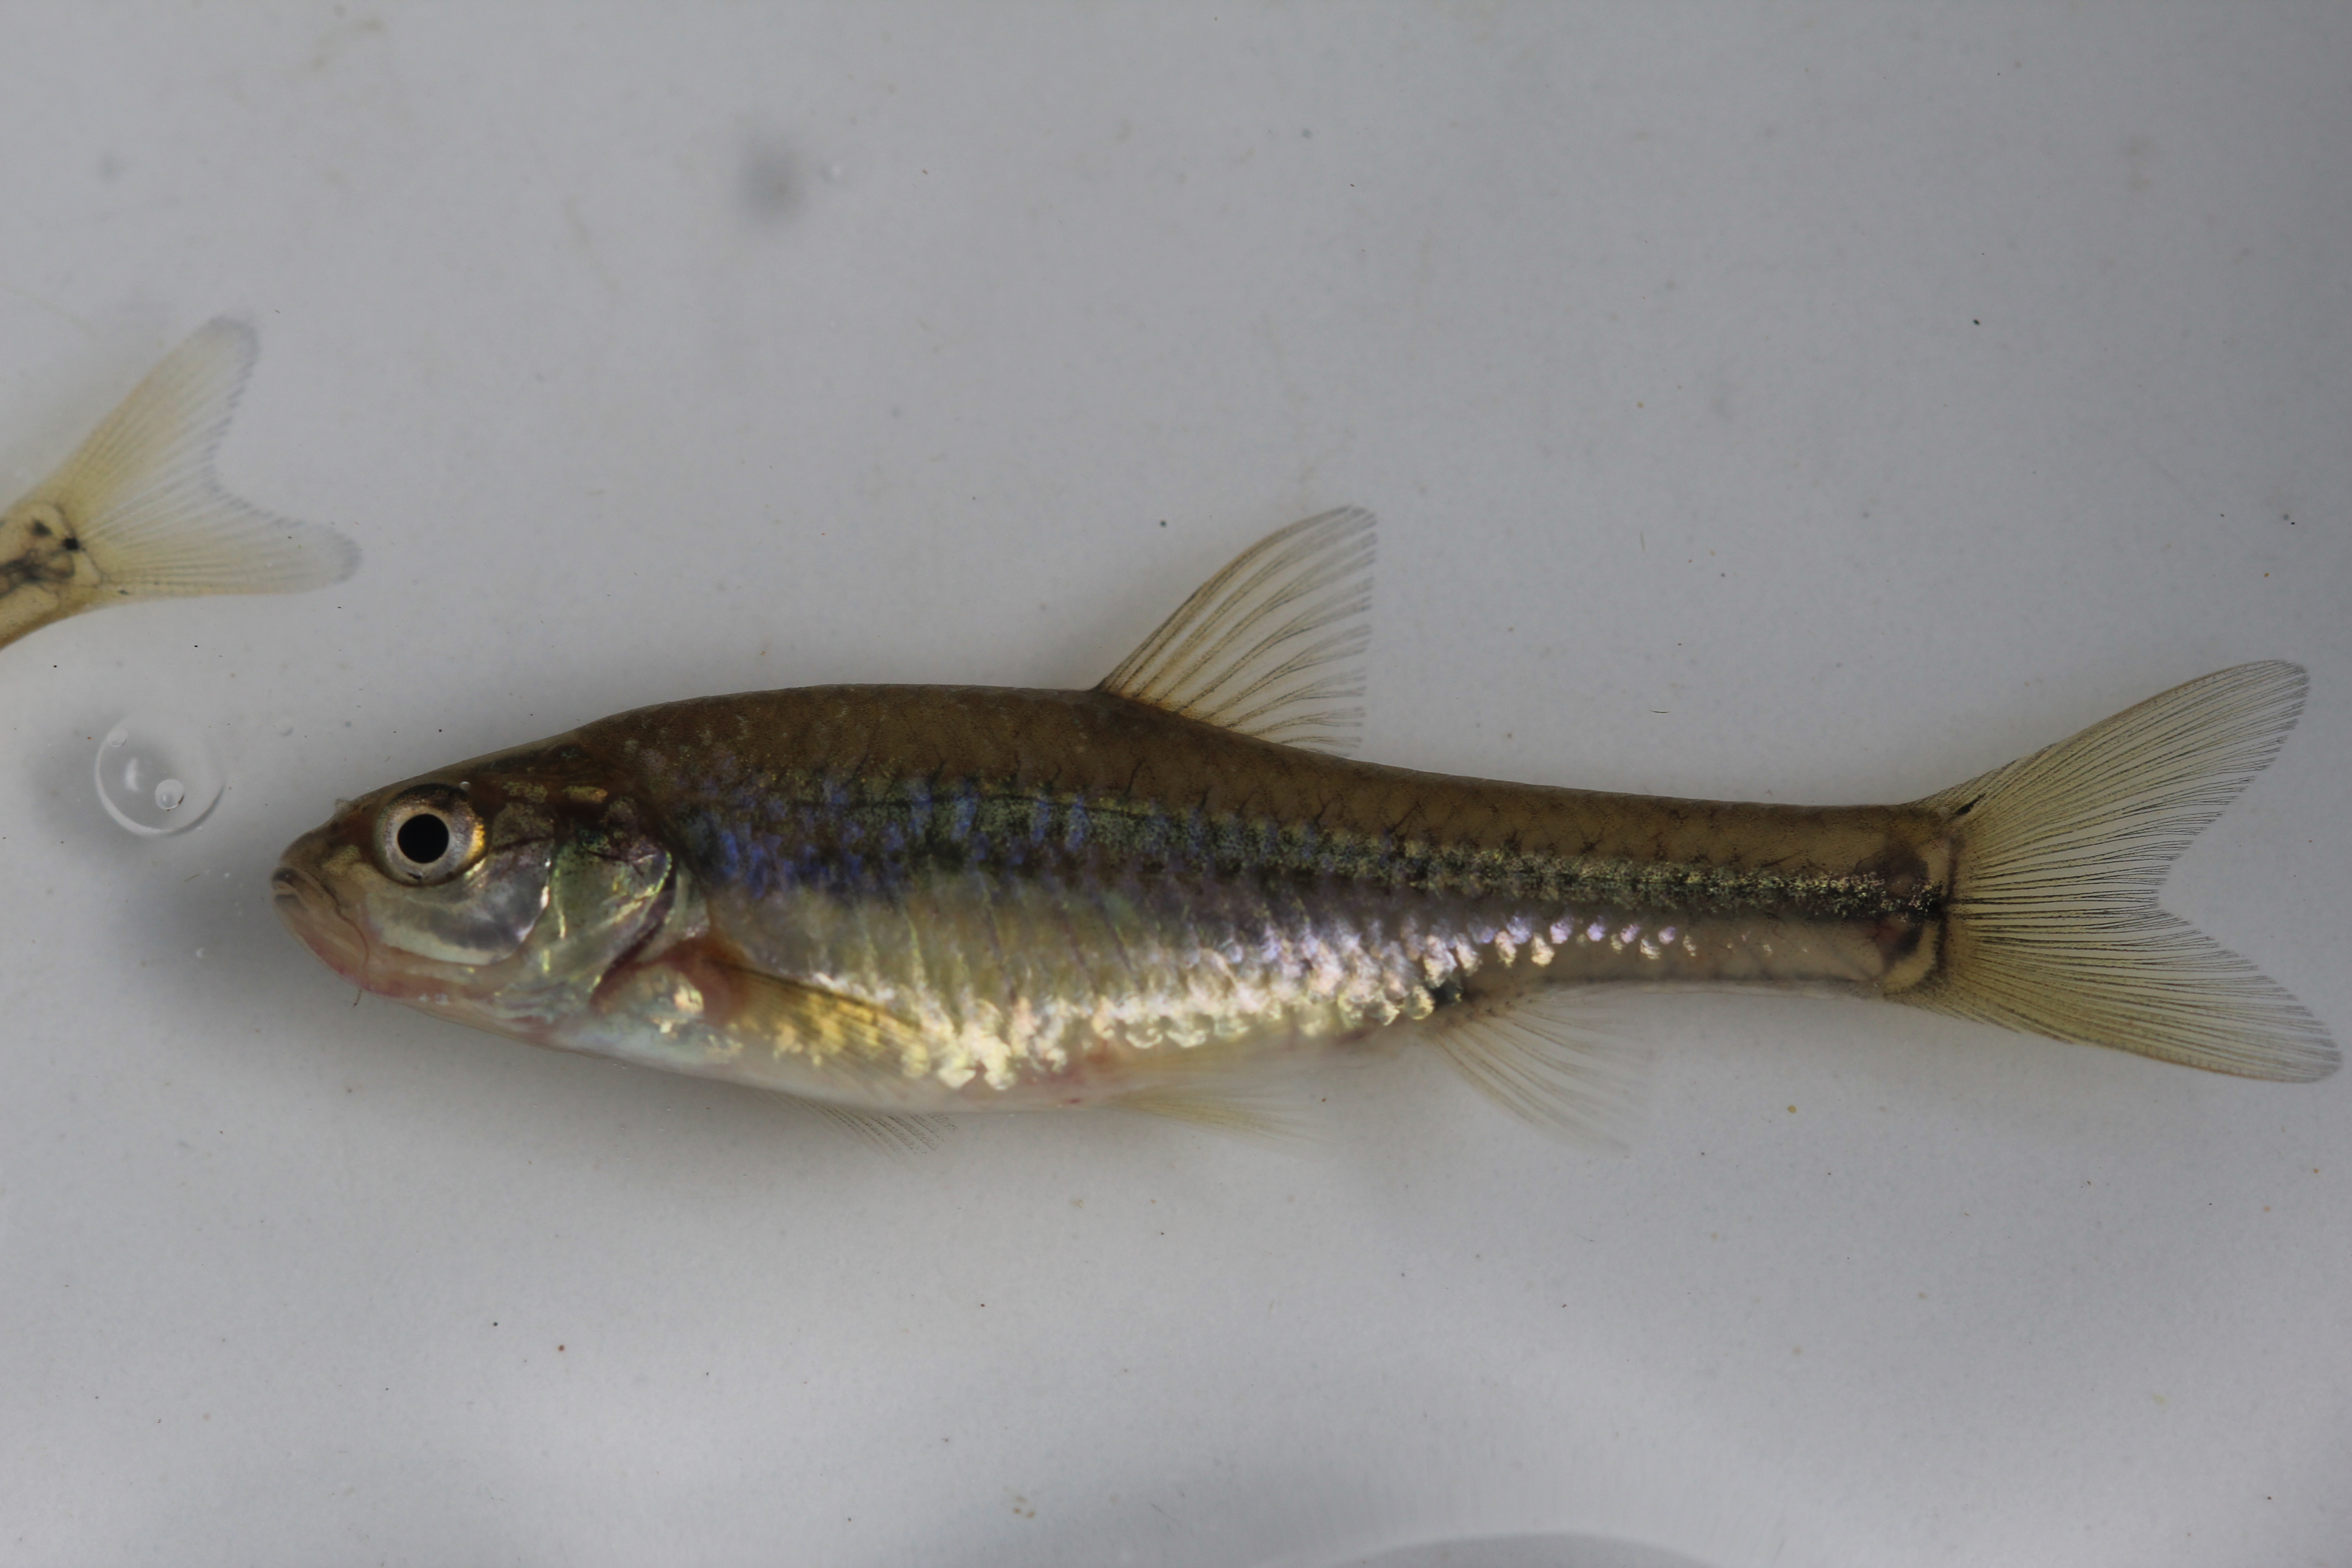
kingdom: Animalia
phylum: Chordata
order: Cypriniformes
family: Cyprinidae
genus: Enteromius
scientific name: Enteromius gurneyi
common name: Redtail barb
